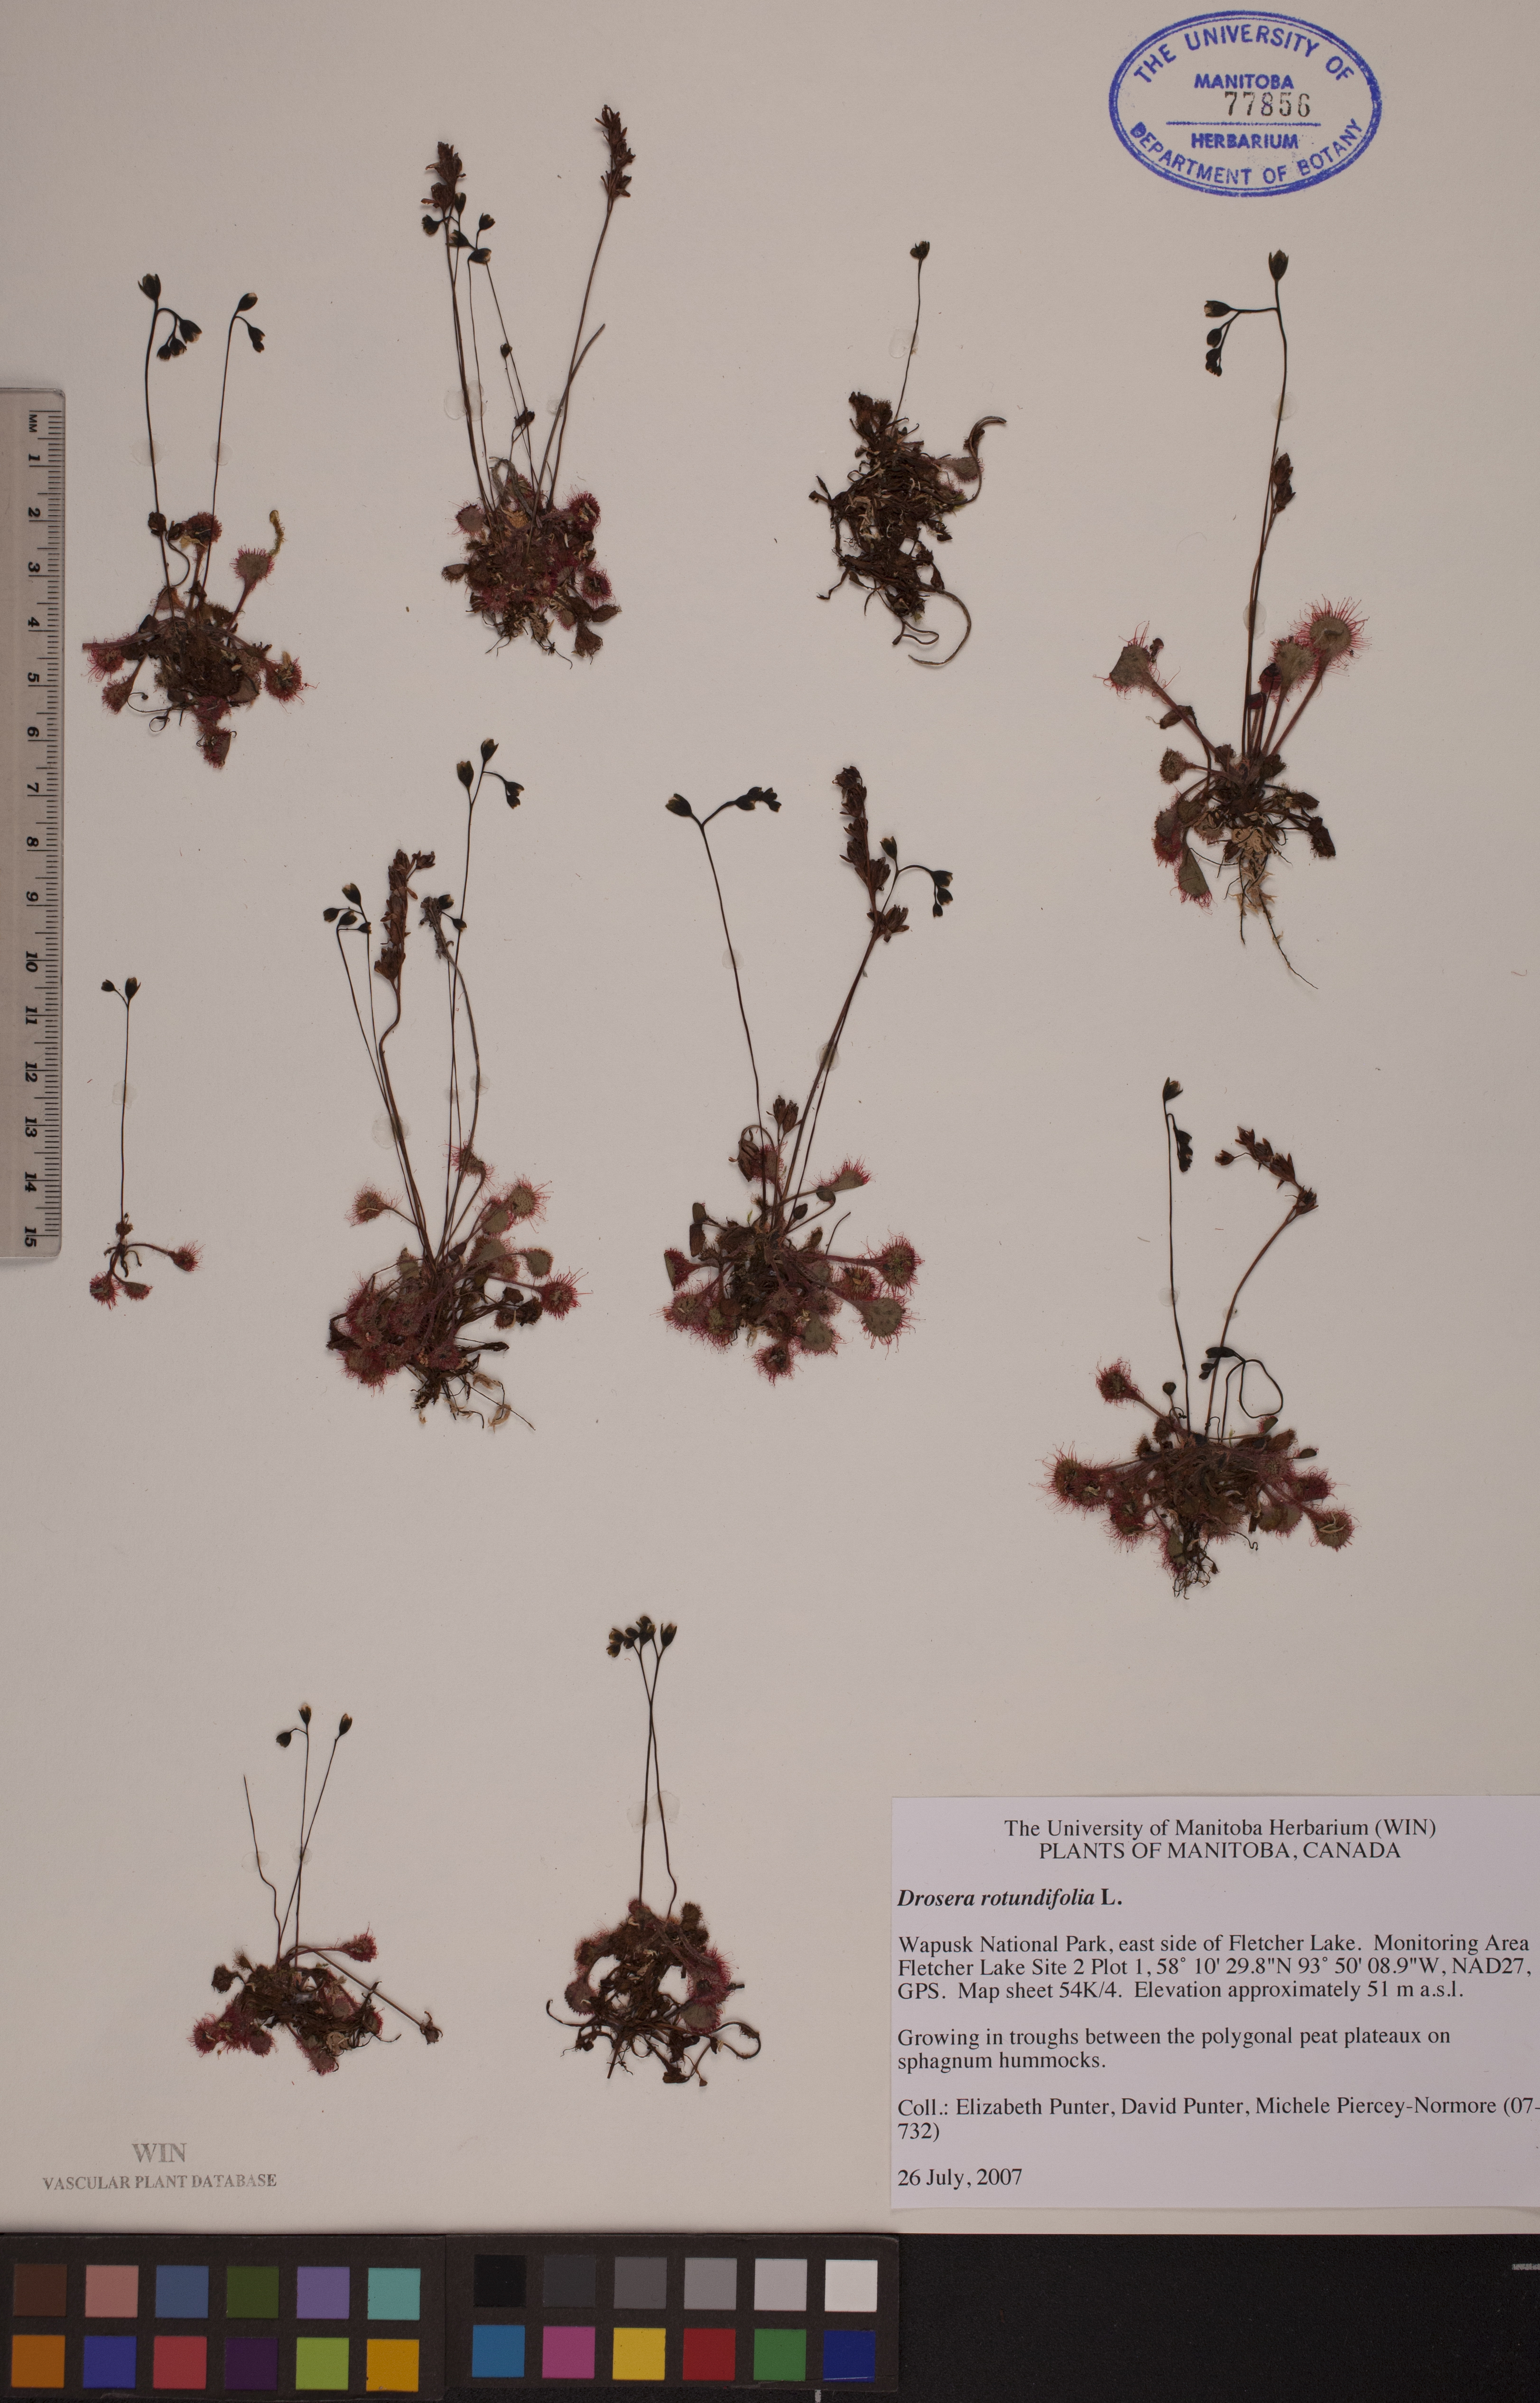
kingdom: Plantae
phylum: Tracheophyta
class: Magnoliopsida
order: Caryophyllales
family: Droseraceae
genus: Drosera
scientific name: Drosera rotundifolia
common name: Round-leaved sundew
